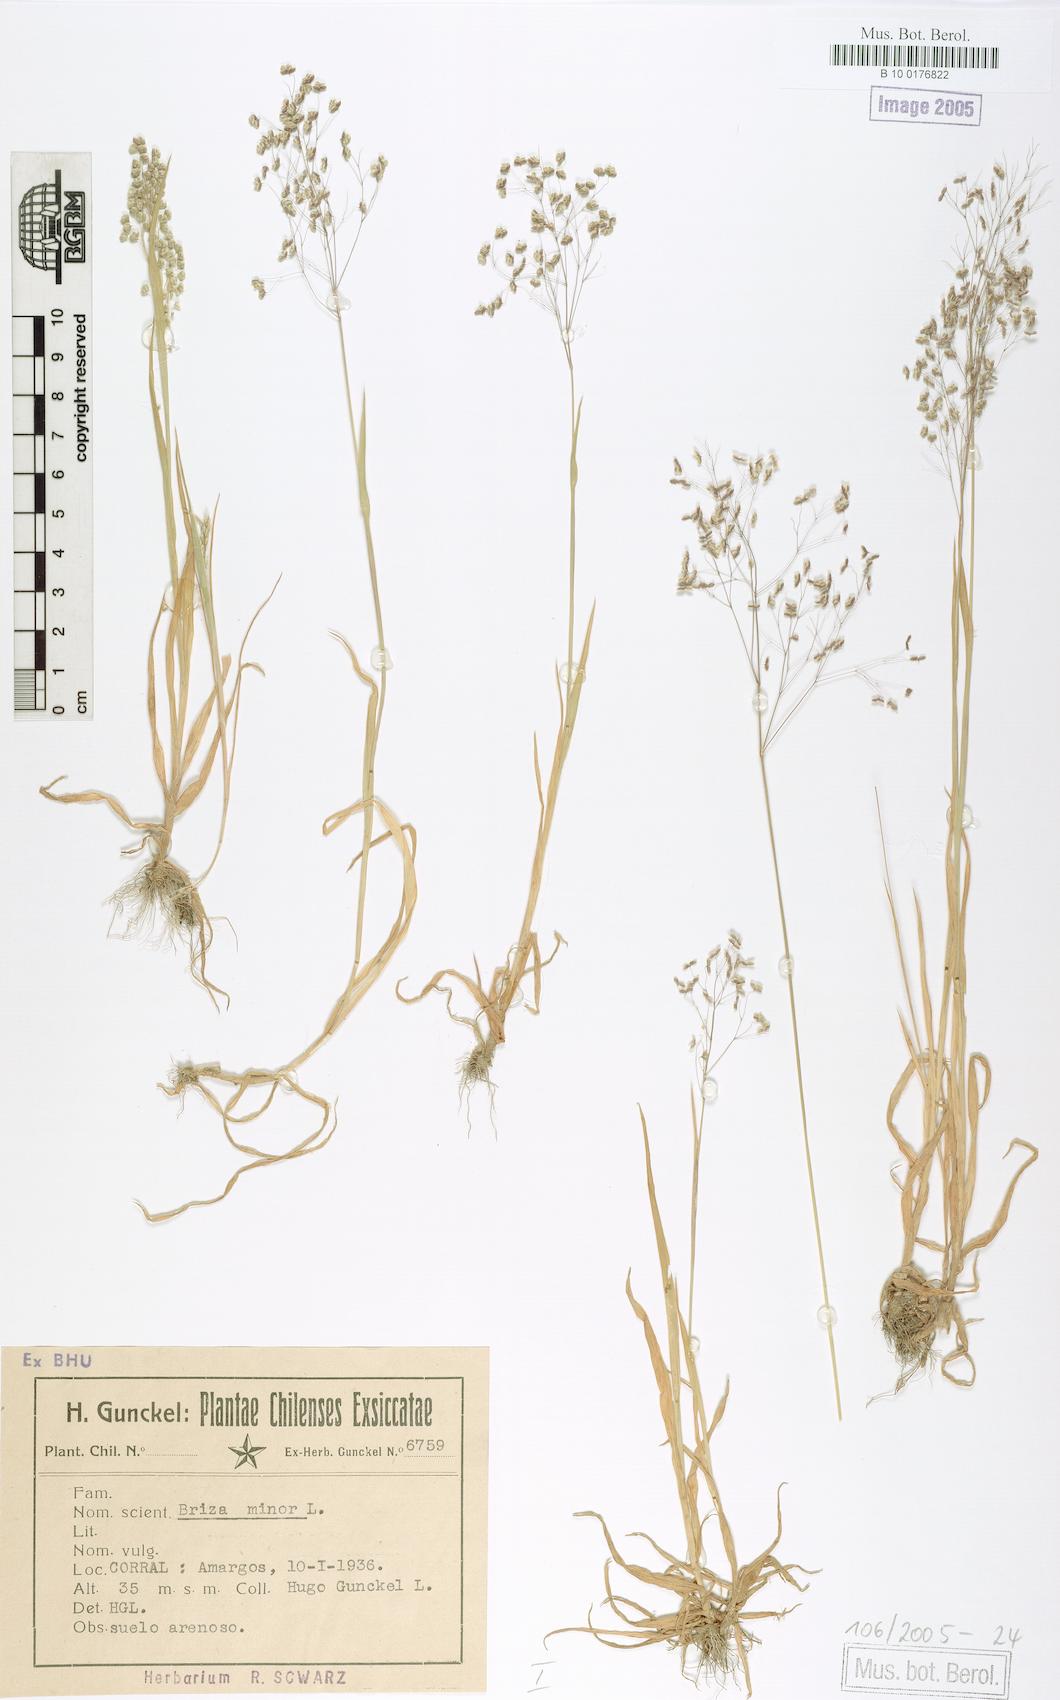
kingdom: Plantae
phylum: Tracheophyta
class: Liliopsida
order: Poales
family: Poaceae
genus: Briza
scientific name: Briza minor
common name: Lesser quaking-grass
